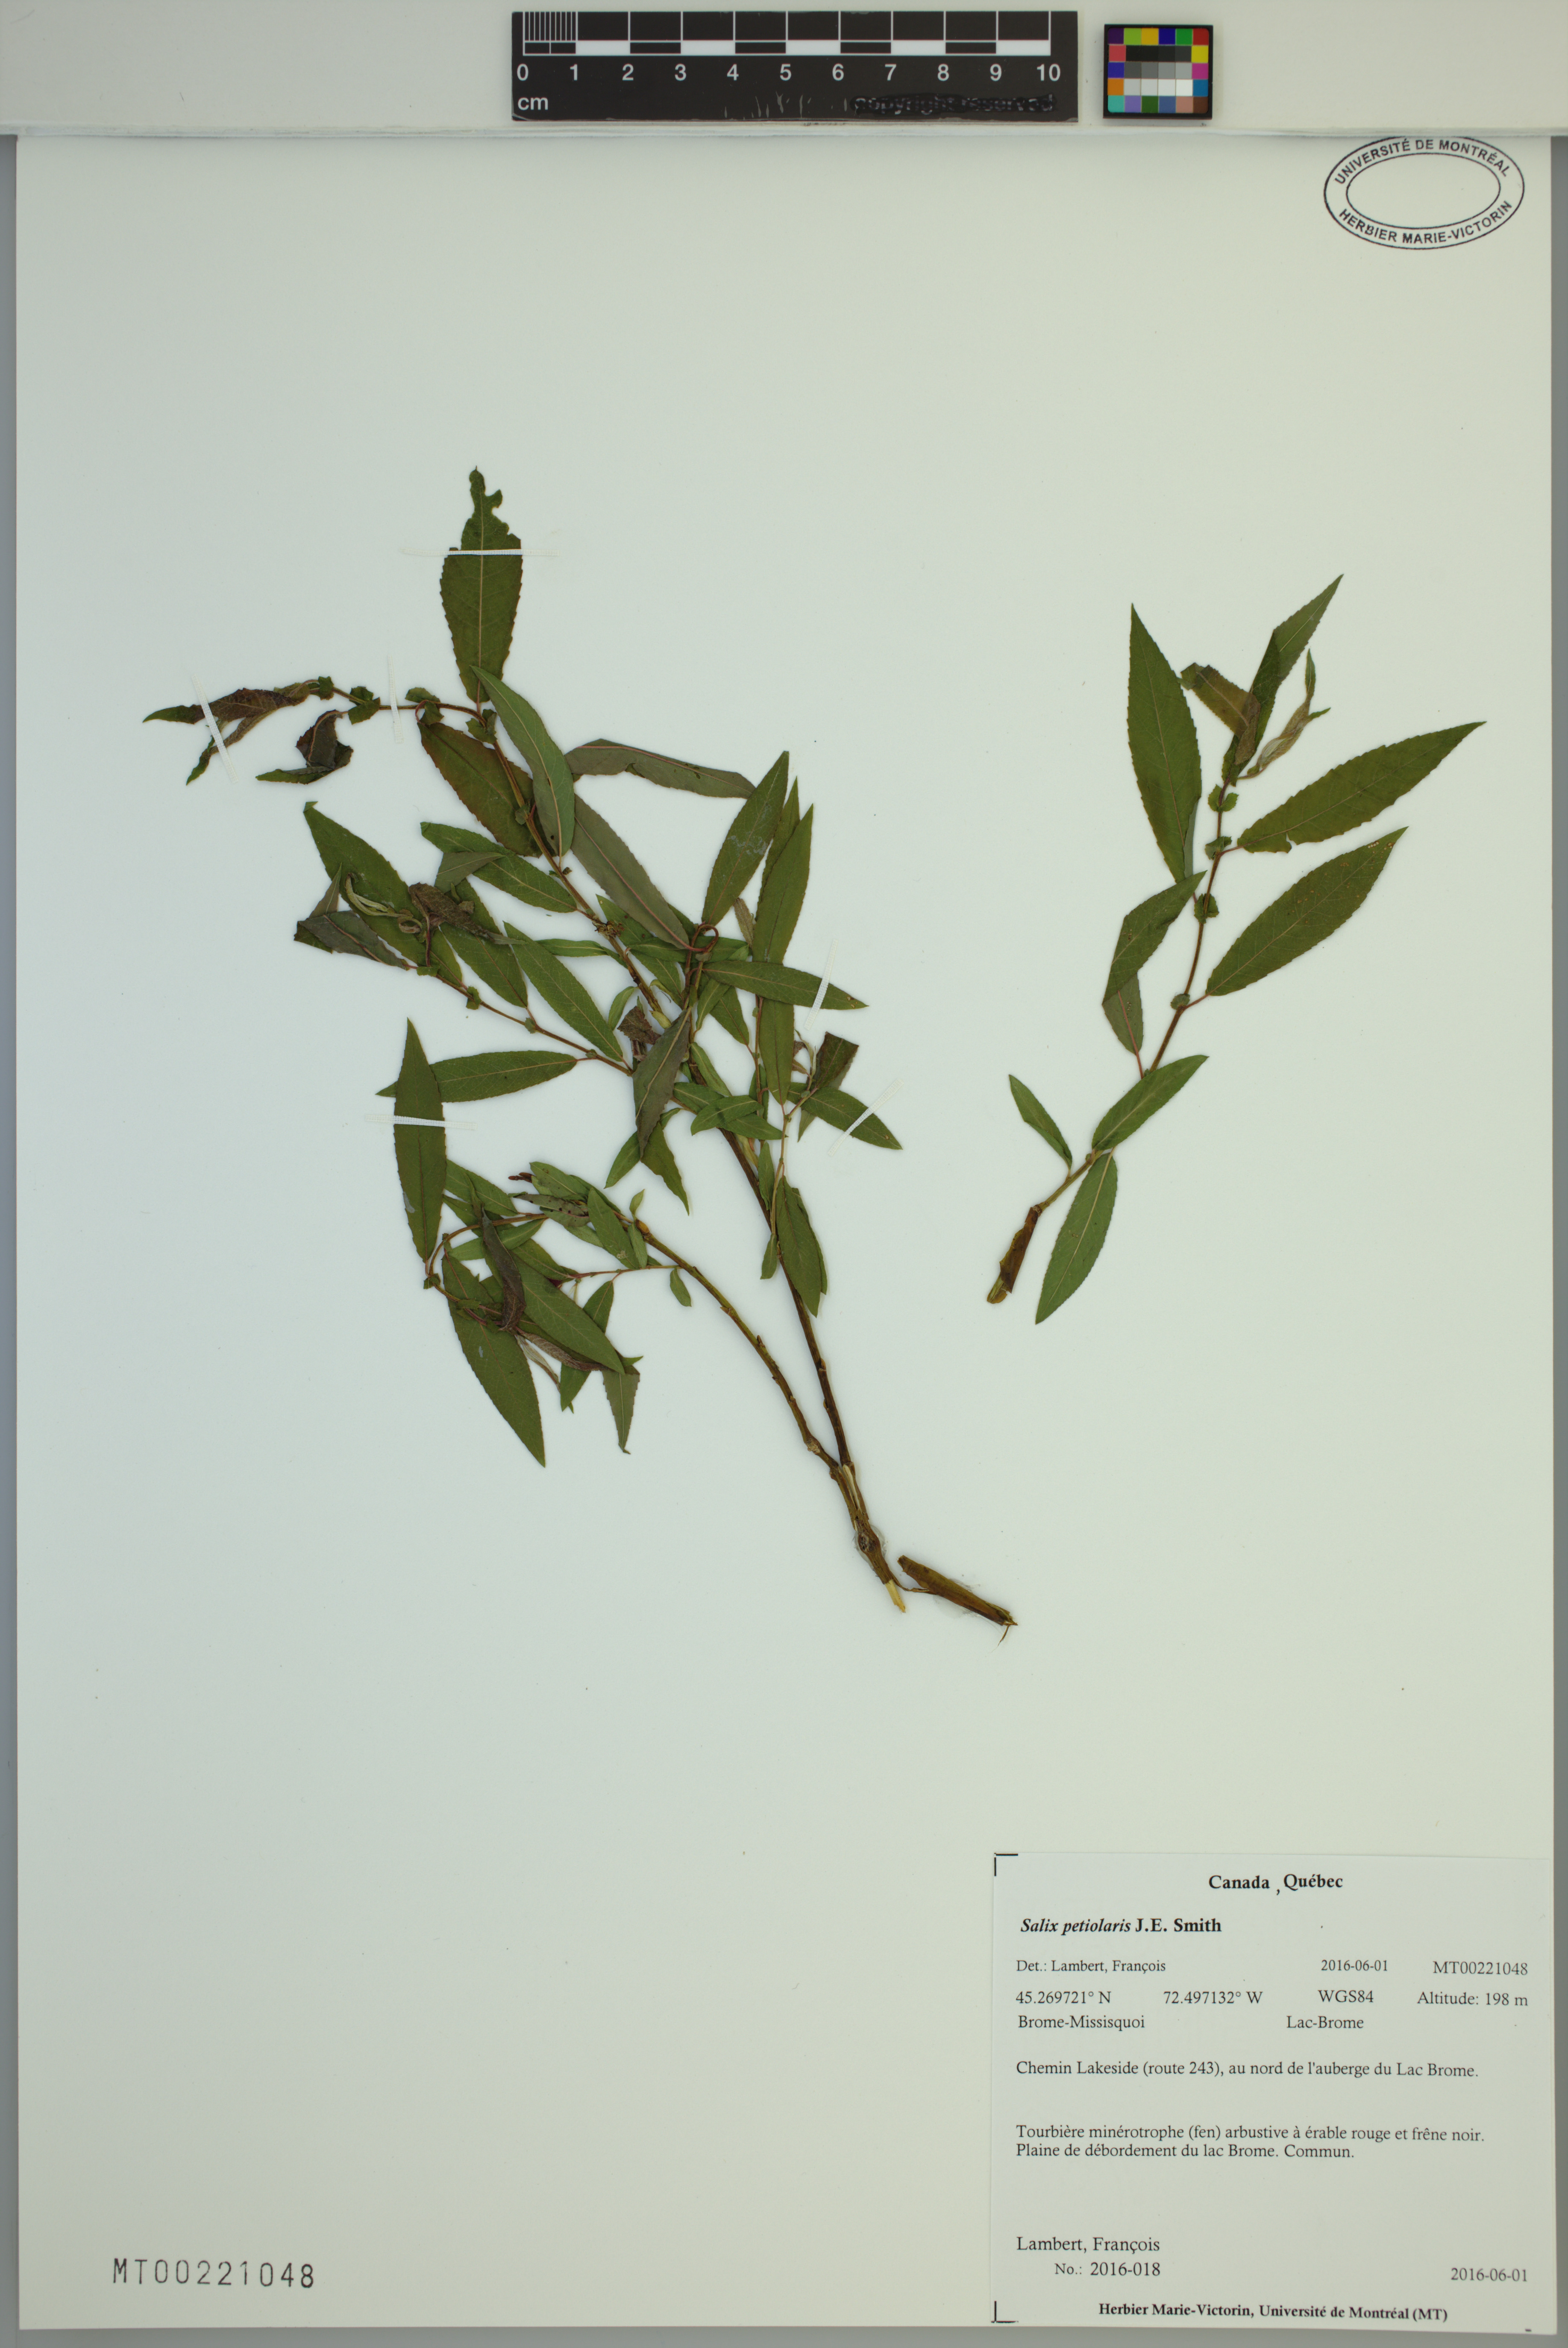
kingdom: Plantae
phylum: Tracheophyta
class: Magnoliopsida
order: Malpighiales
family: Salicaceae
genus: Salix
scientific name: Salix petiolaris
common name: Slender willow
